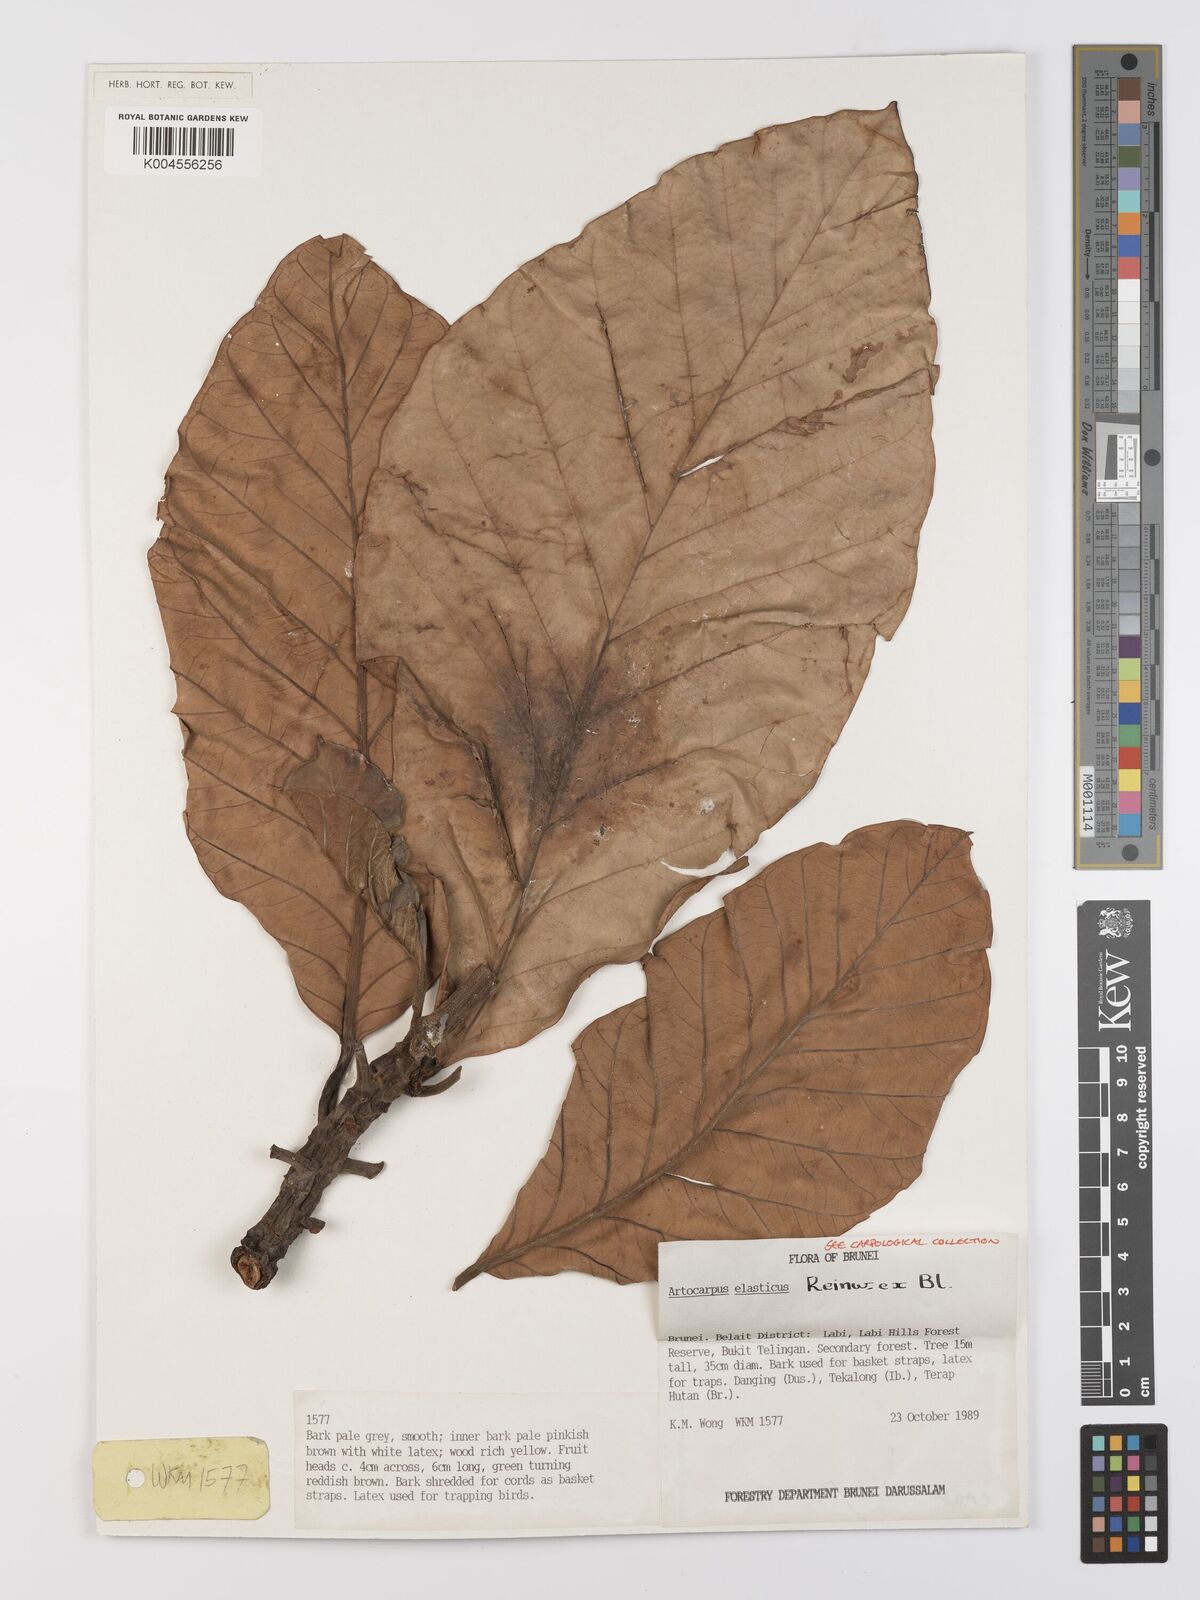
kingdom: Plantae
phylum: Tracheophyta
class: Magnoliopsida
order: Rosales
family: Moraceae
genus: Artocarpus
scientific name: Artocarpus elasticus
